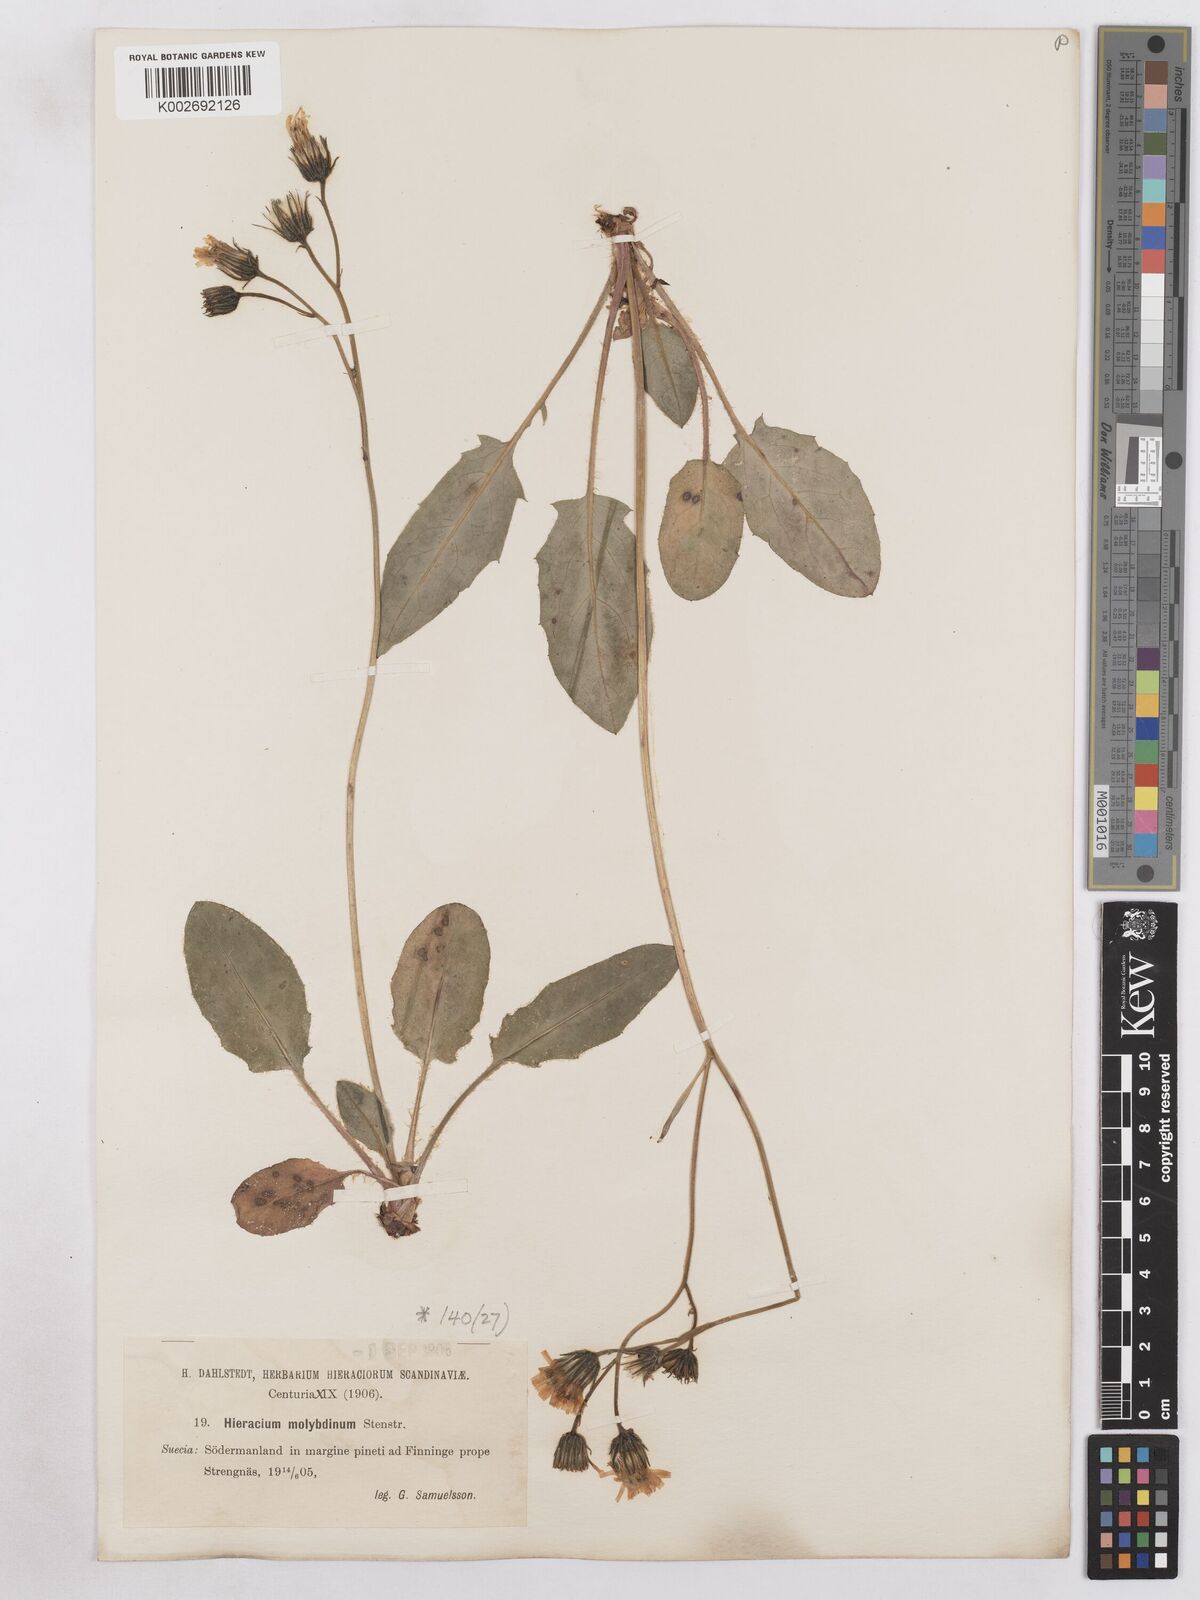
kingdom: Plantae
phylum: Tracheophyta
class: Magnoliopsida
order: Asterales
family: Asteraceae
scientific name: Asteraceae
